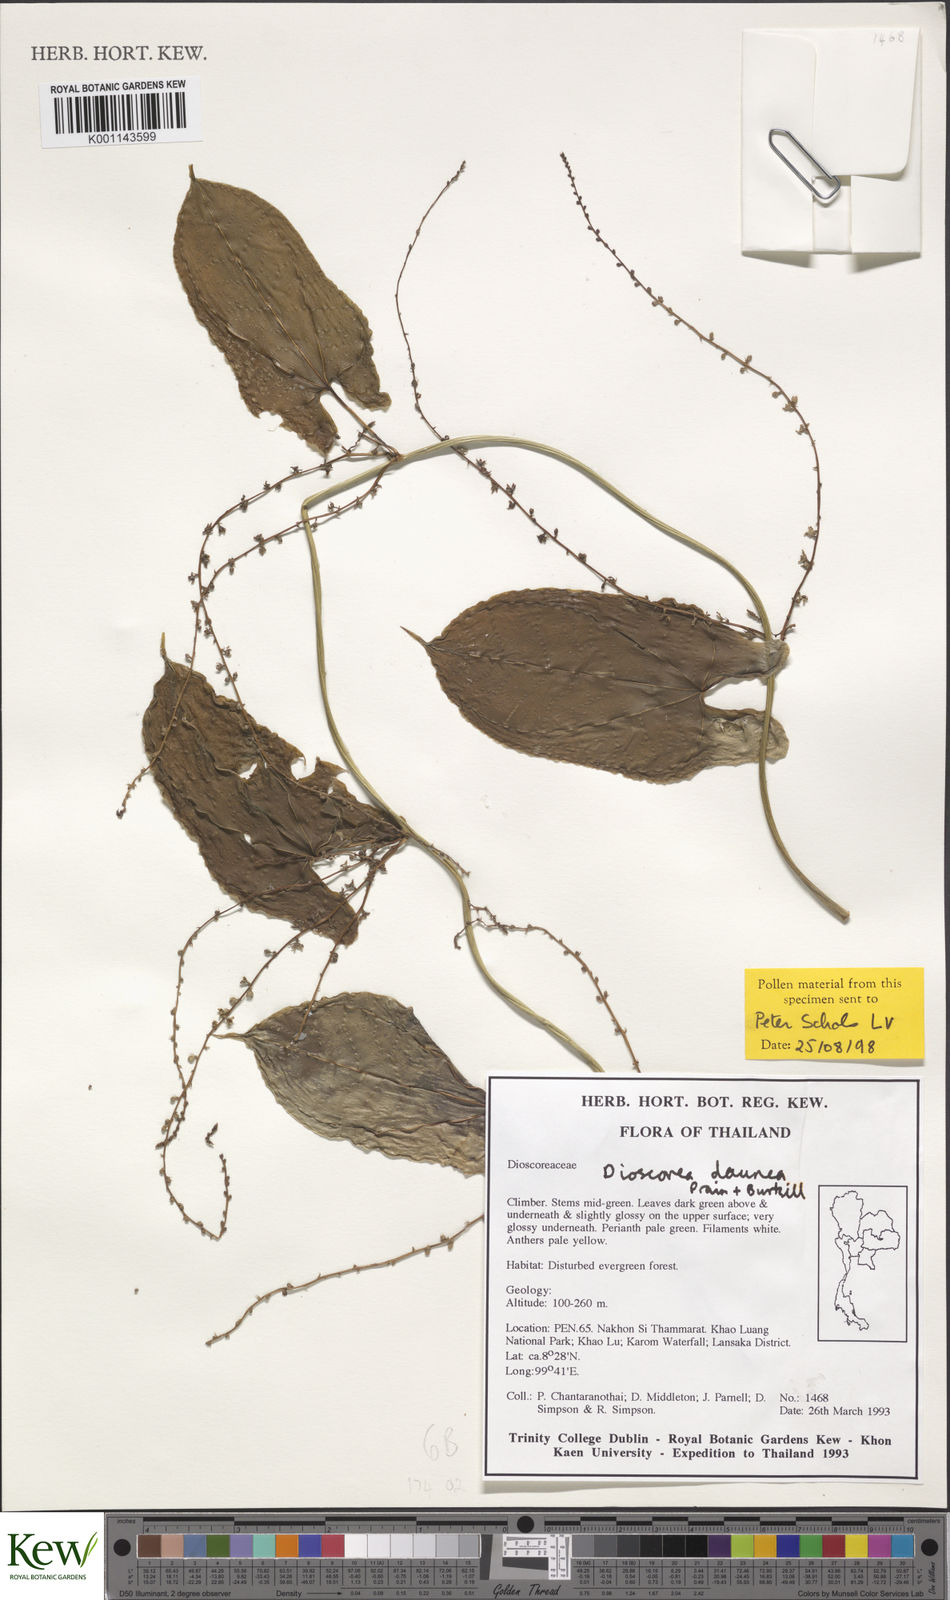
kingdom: Plantae
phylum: Tracheophyta
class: Liliopsida
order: Dioscoreales
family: Dioscoreaceae
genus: Dioscorea
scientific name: Dioscorea daunea
